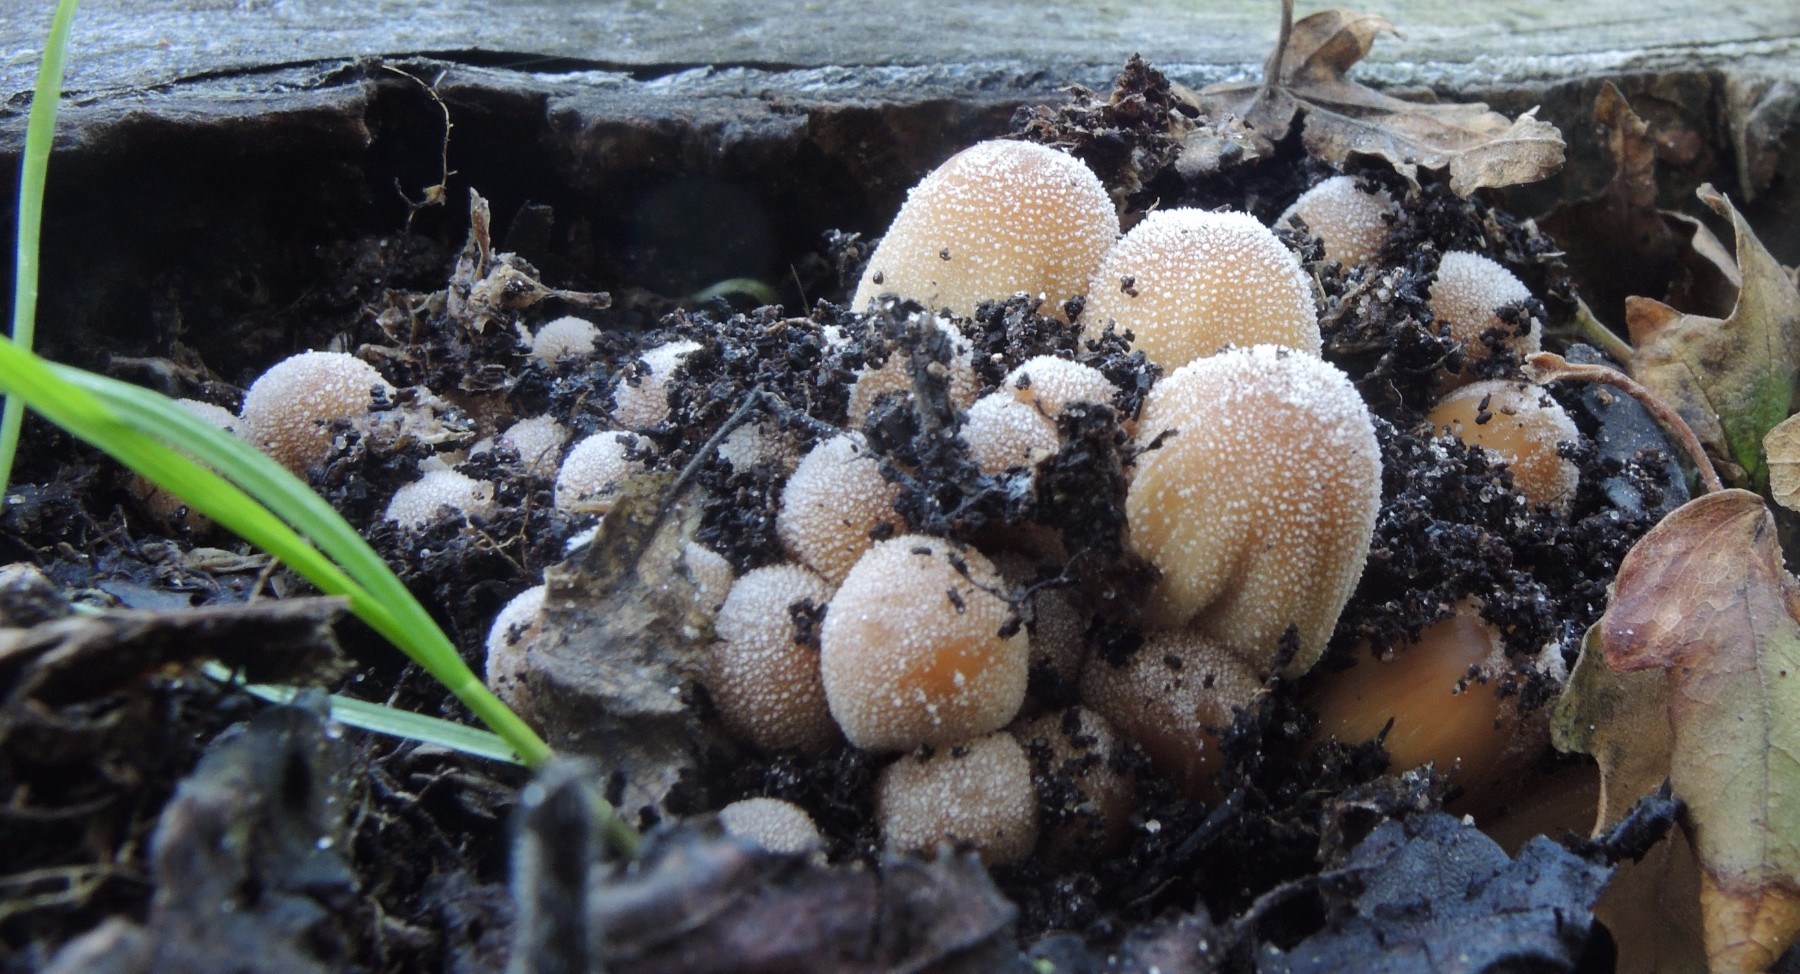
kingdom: Fungi
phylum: Basidiomycota
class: Agaricomycetes
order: Agaricales
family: Psathyrellaceae
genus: Coprinellus
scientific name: Coprinellus saccharinus
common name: sukker-blækhat
